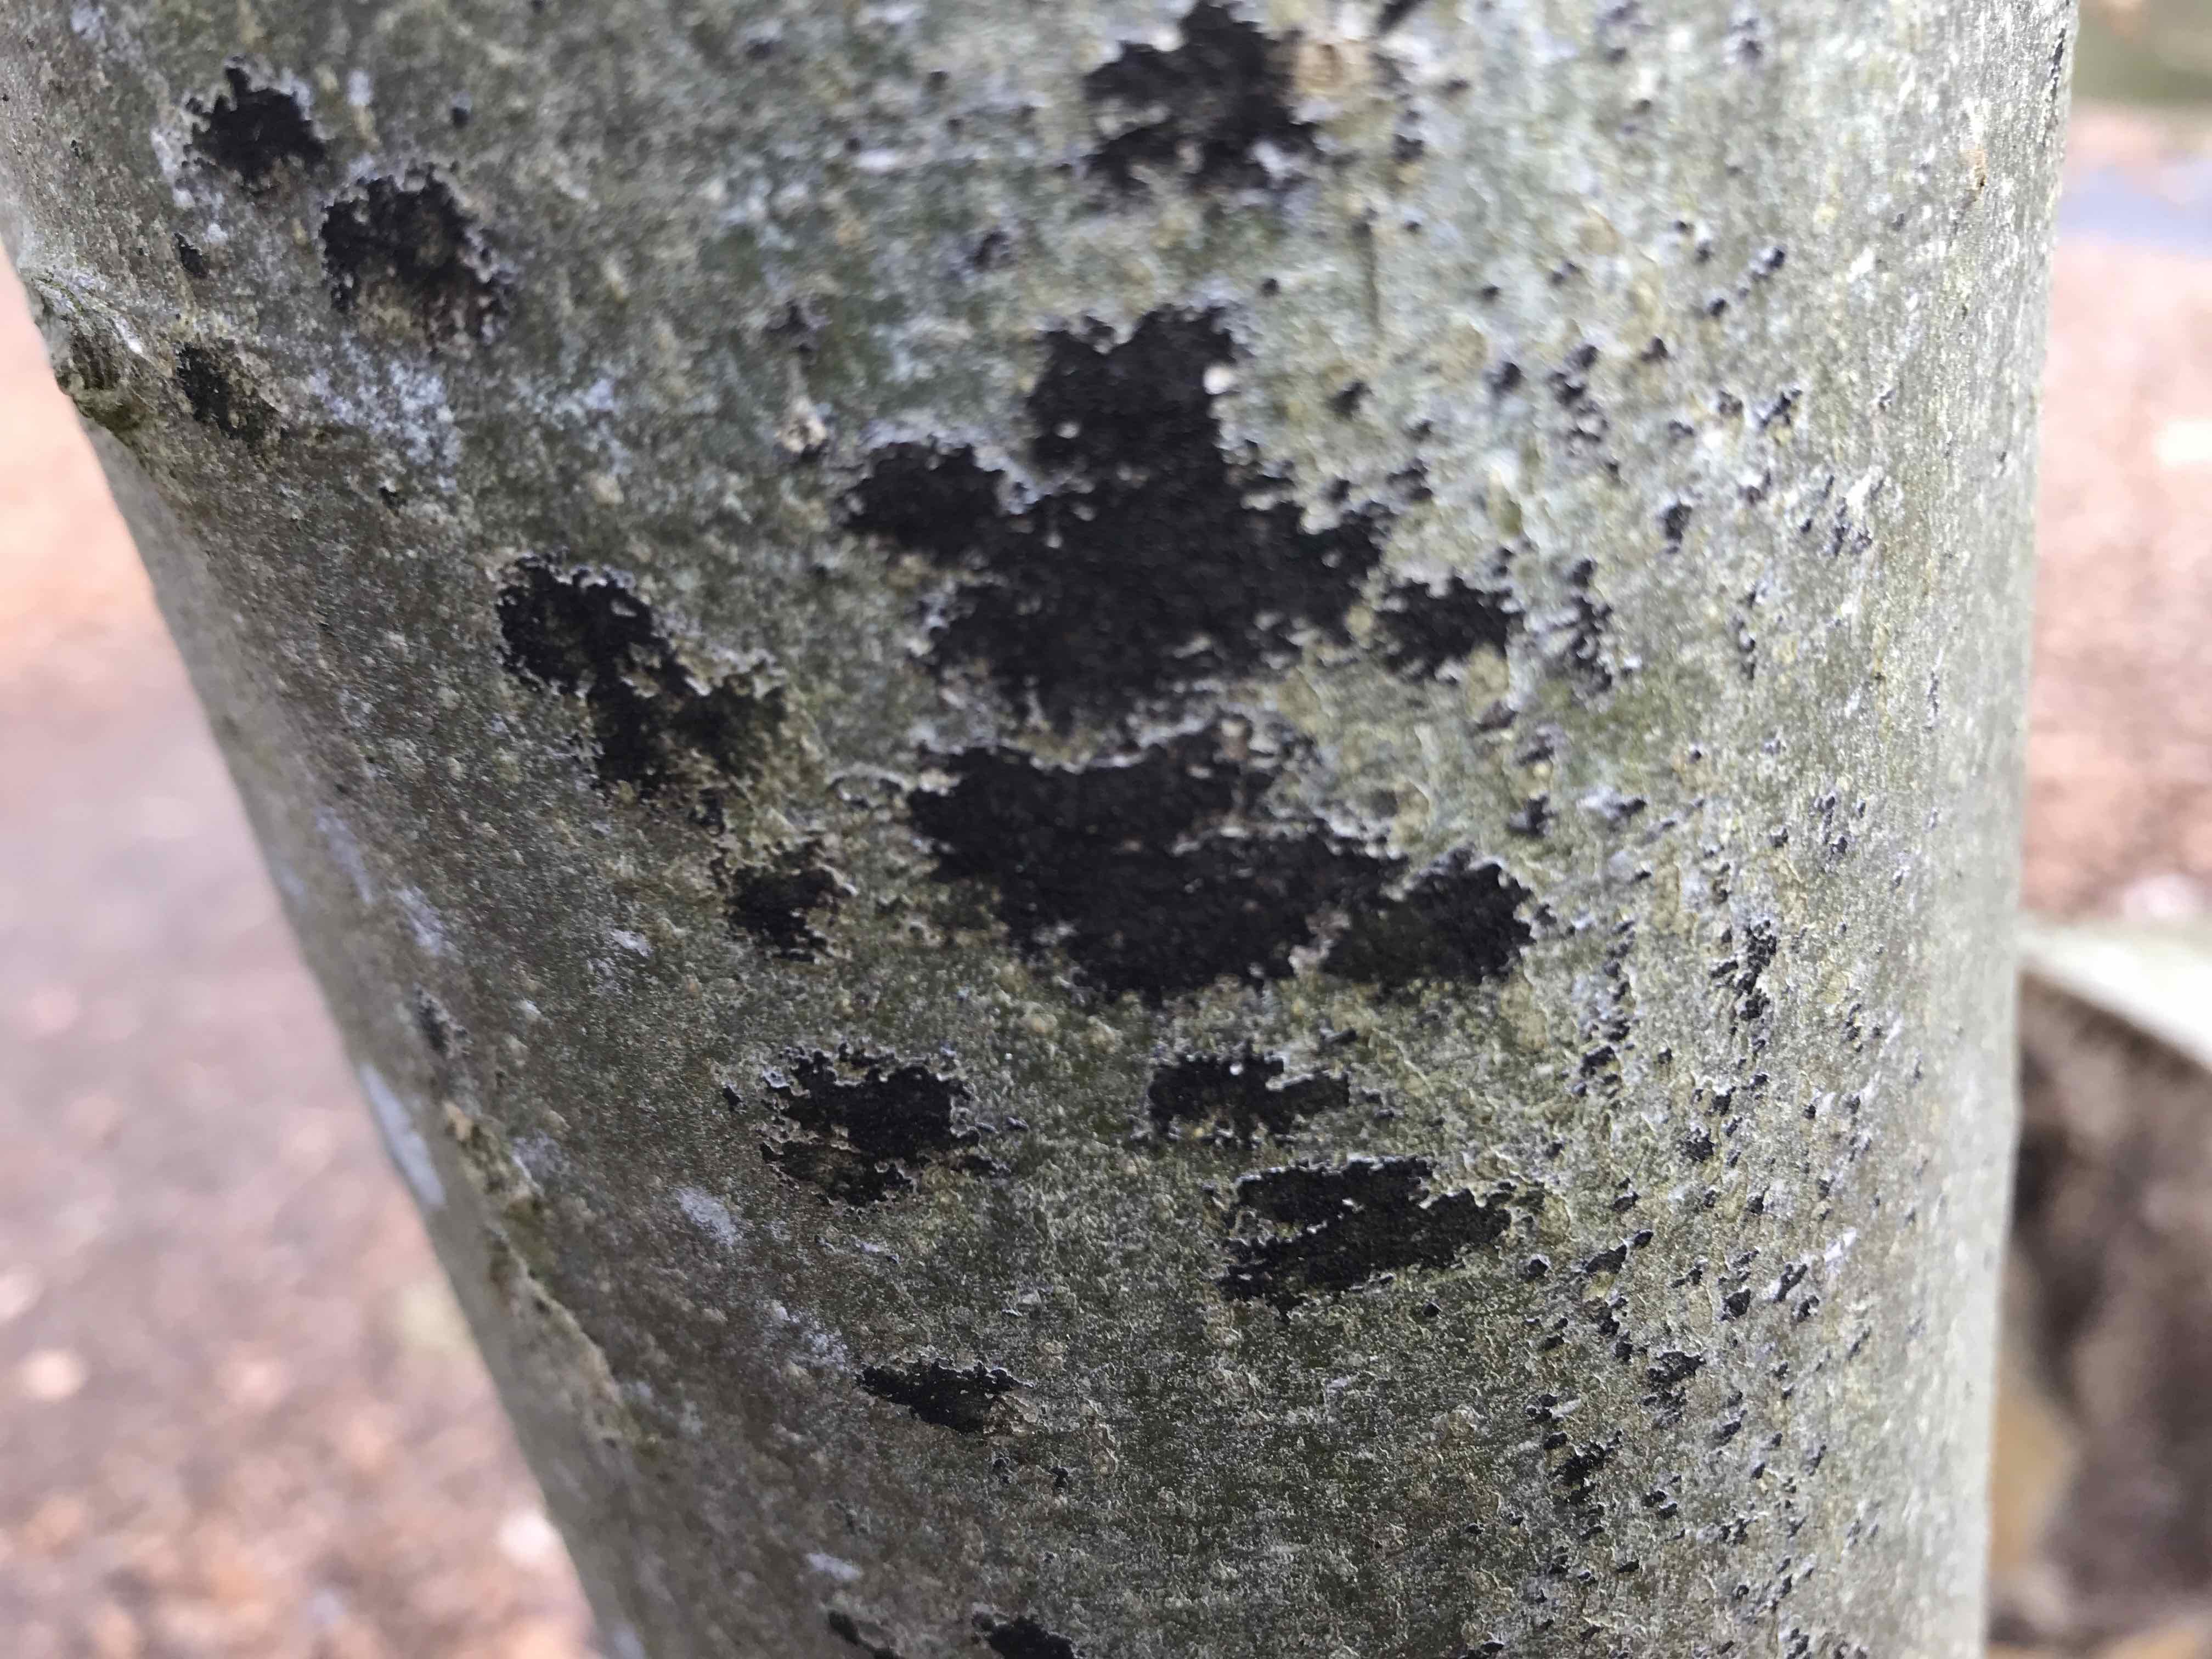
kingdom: Fungi
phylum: Ascomycota
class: Leotiomycetes
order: Rhytismatales
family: Ascodichaenaceae
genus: Ascodichaena
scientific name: Ascodichaena rugosa
